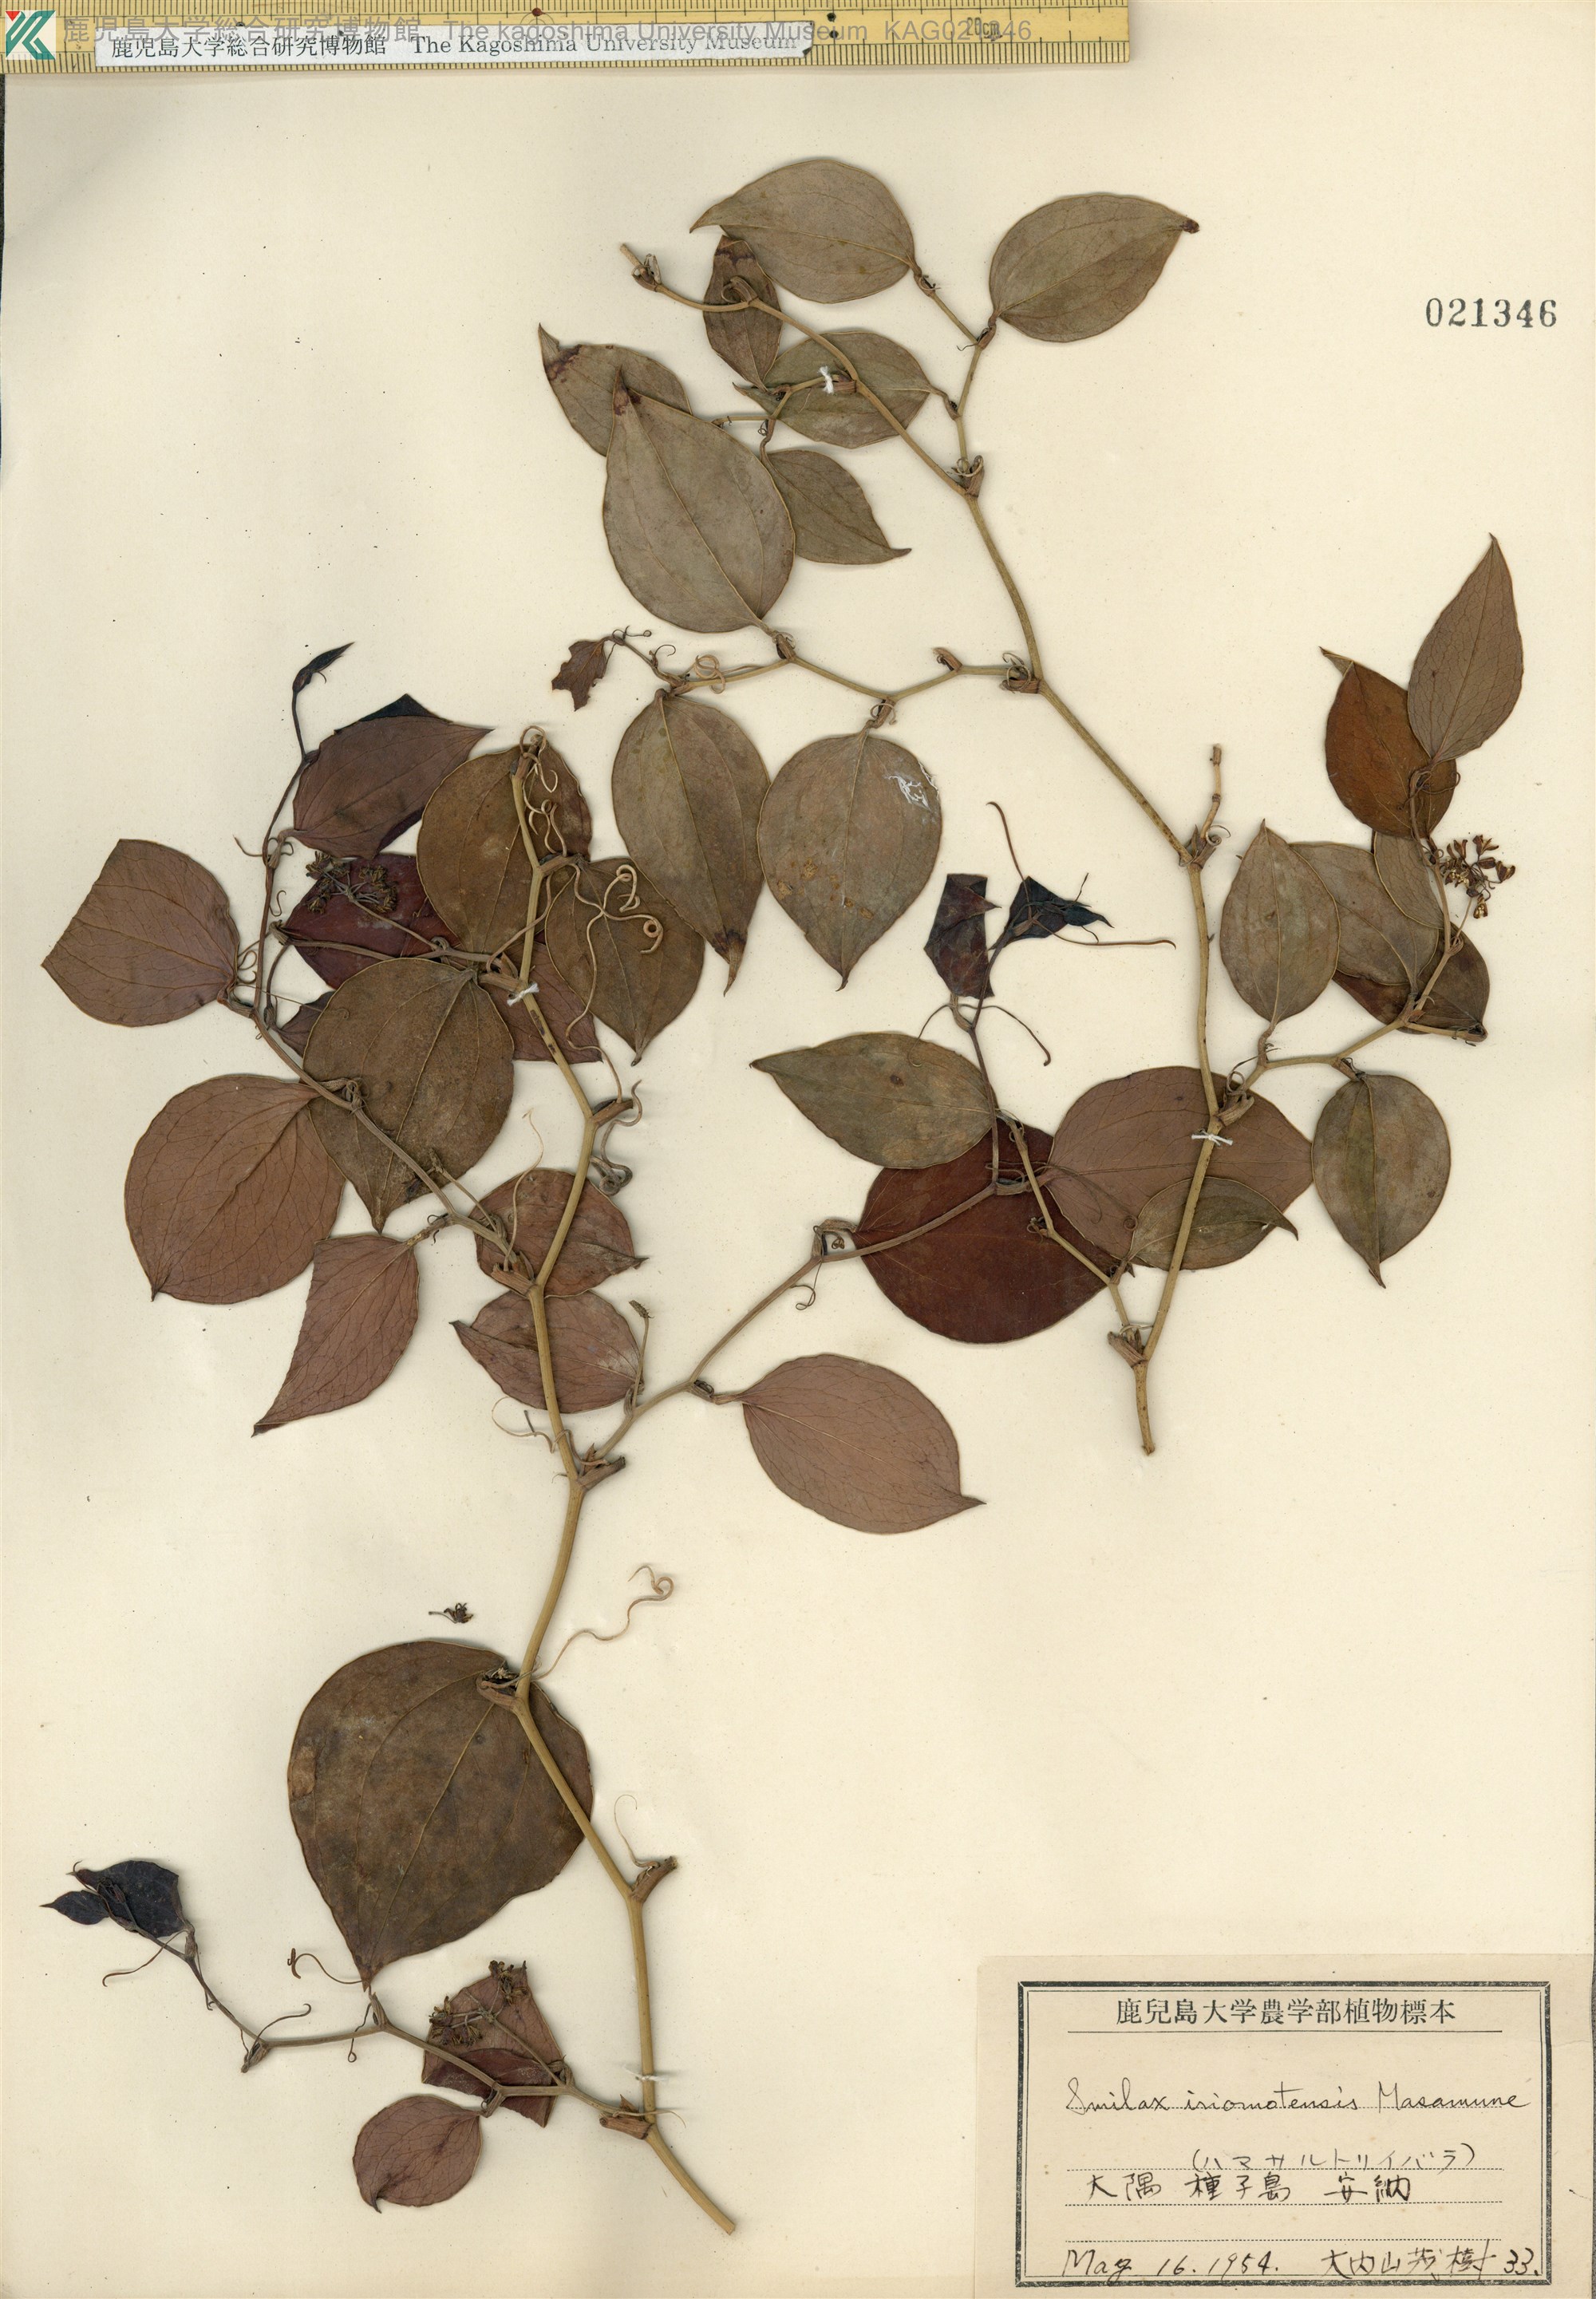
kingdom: Plantae
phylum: Tracheophyta
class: Liliopsida
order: Liliales
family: Smilacaceae
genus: Smilax
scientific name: Smilax sebeana
